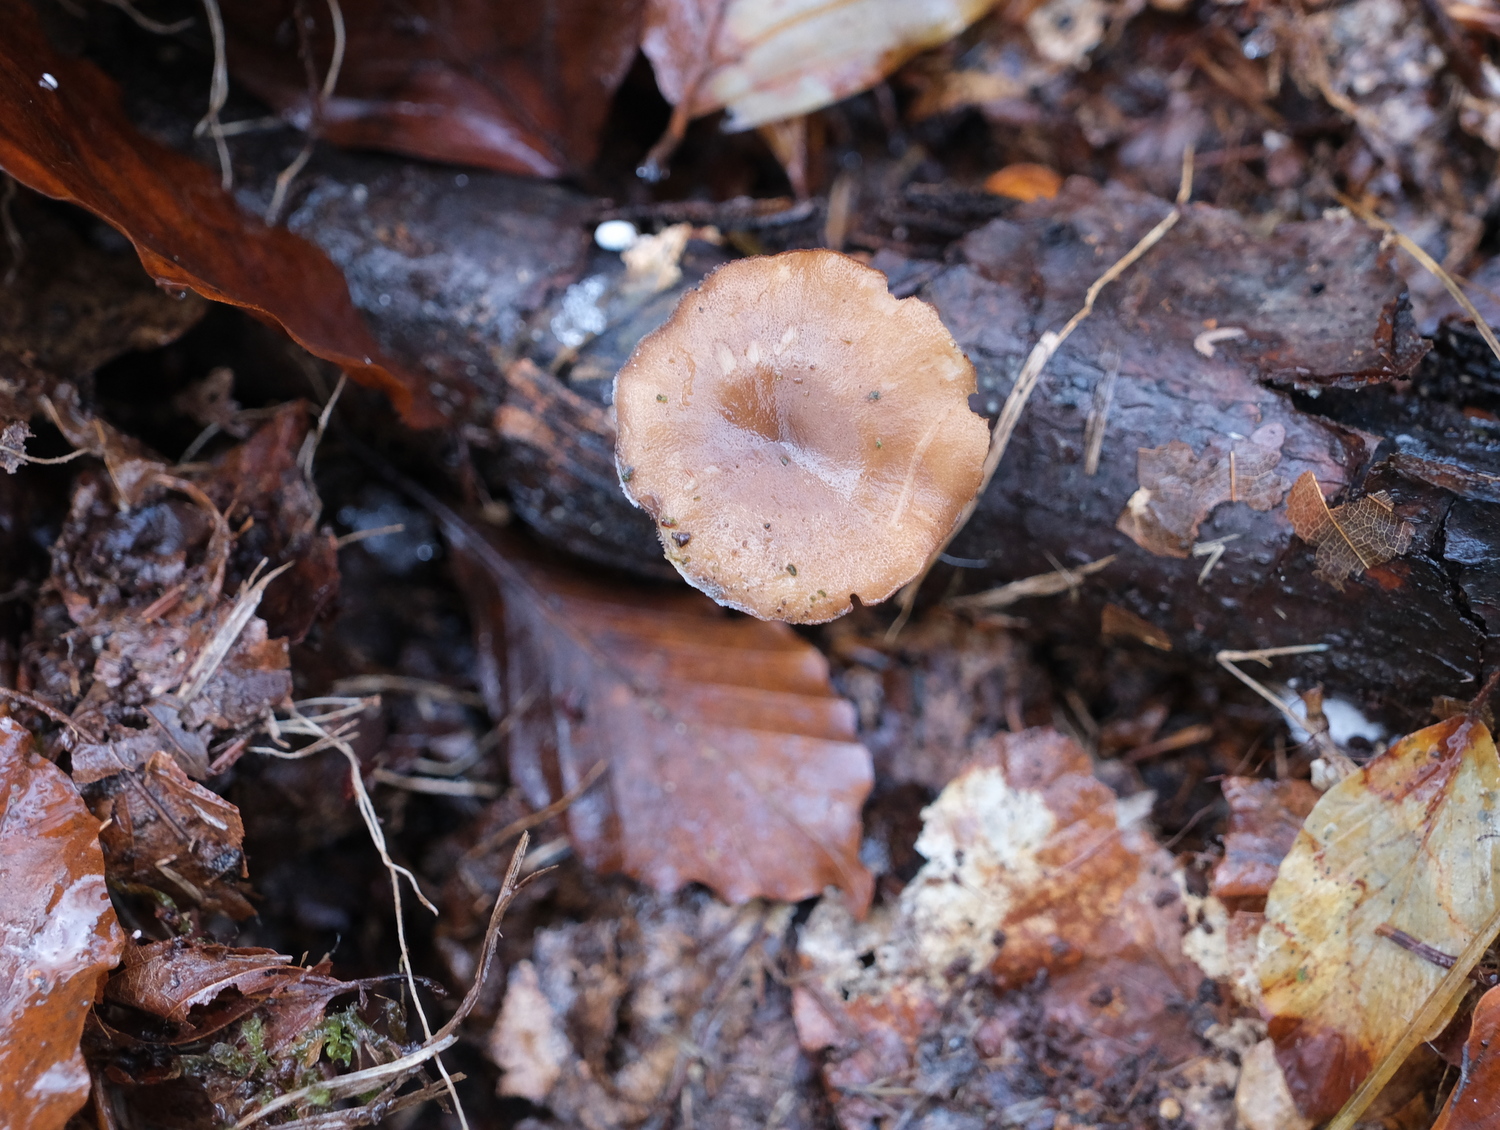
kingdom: Fungi
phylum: Basidiomycota
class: Agaricomycetes
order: Polyporales
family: Polyporaceae
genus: Lentinus
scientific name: Lentinus brumalis
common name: vinter-stilkporesvamp
